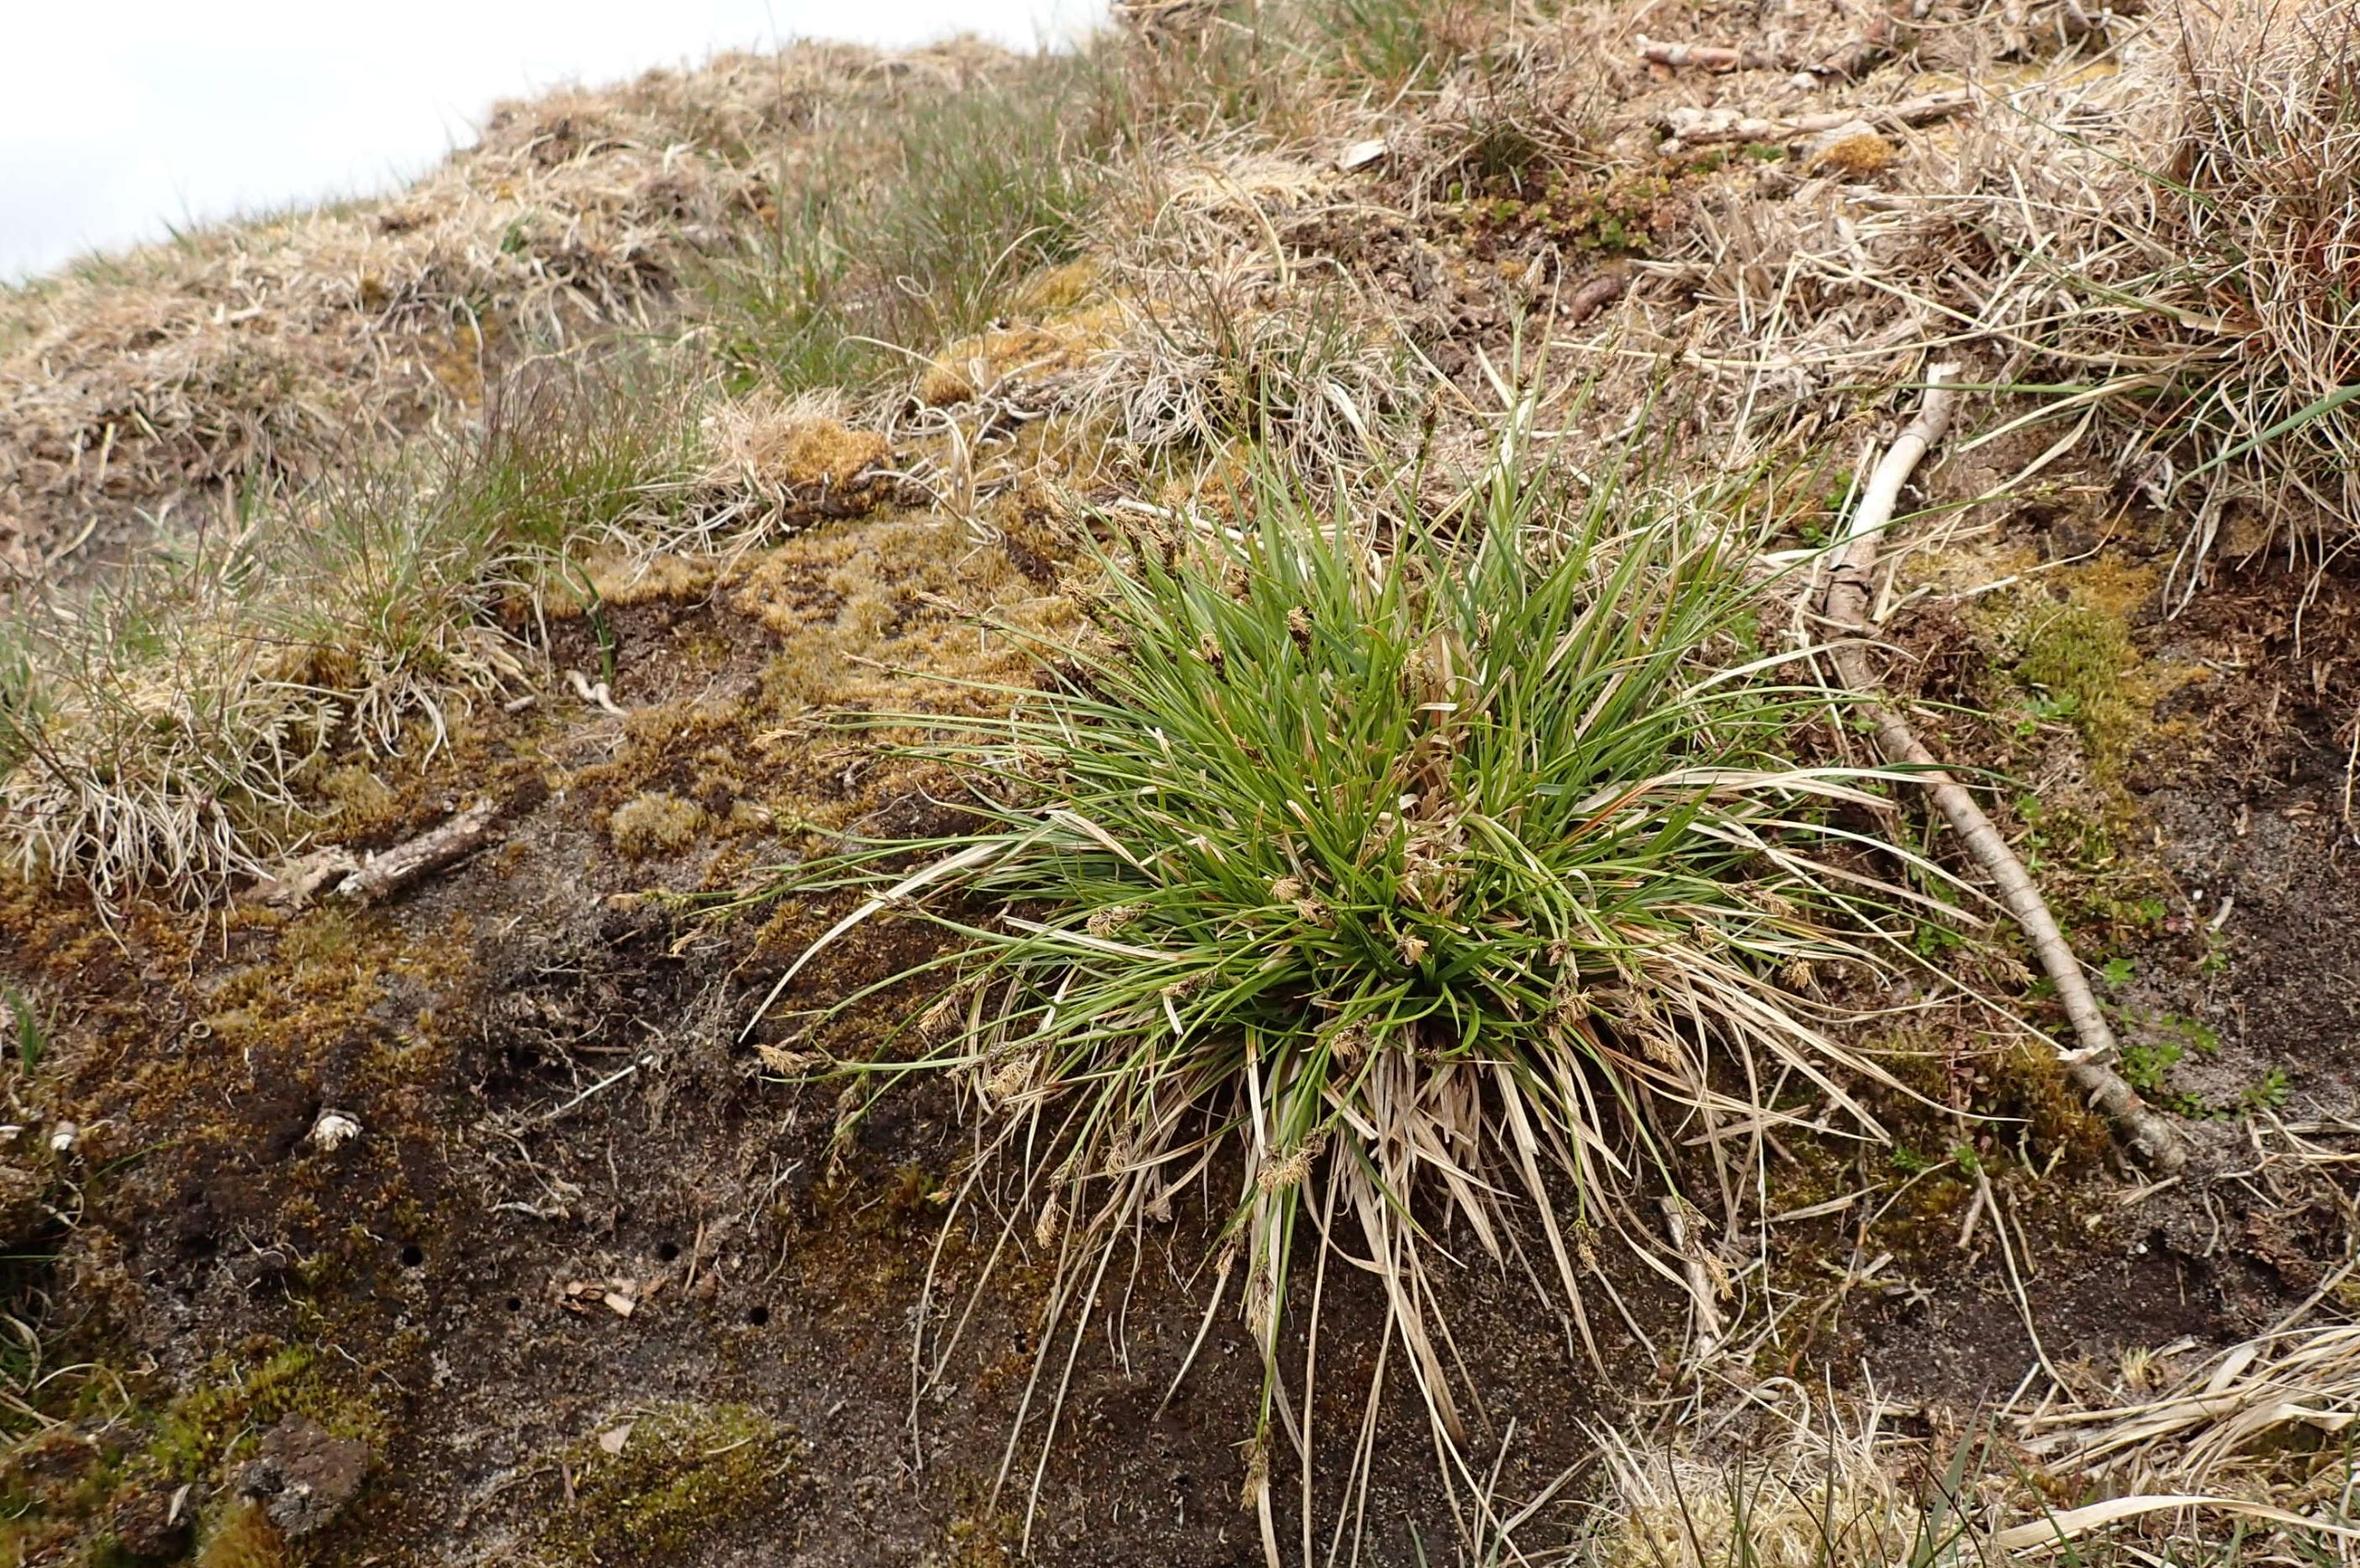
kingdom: Plantae
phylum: Tracheophyta
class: Liliopsida
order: Poales
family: Cyperaceae
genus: Carex
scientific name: Carex pilulifera
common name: Pille-star
